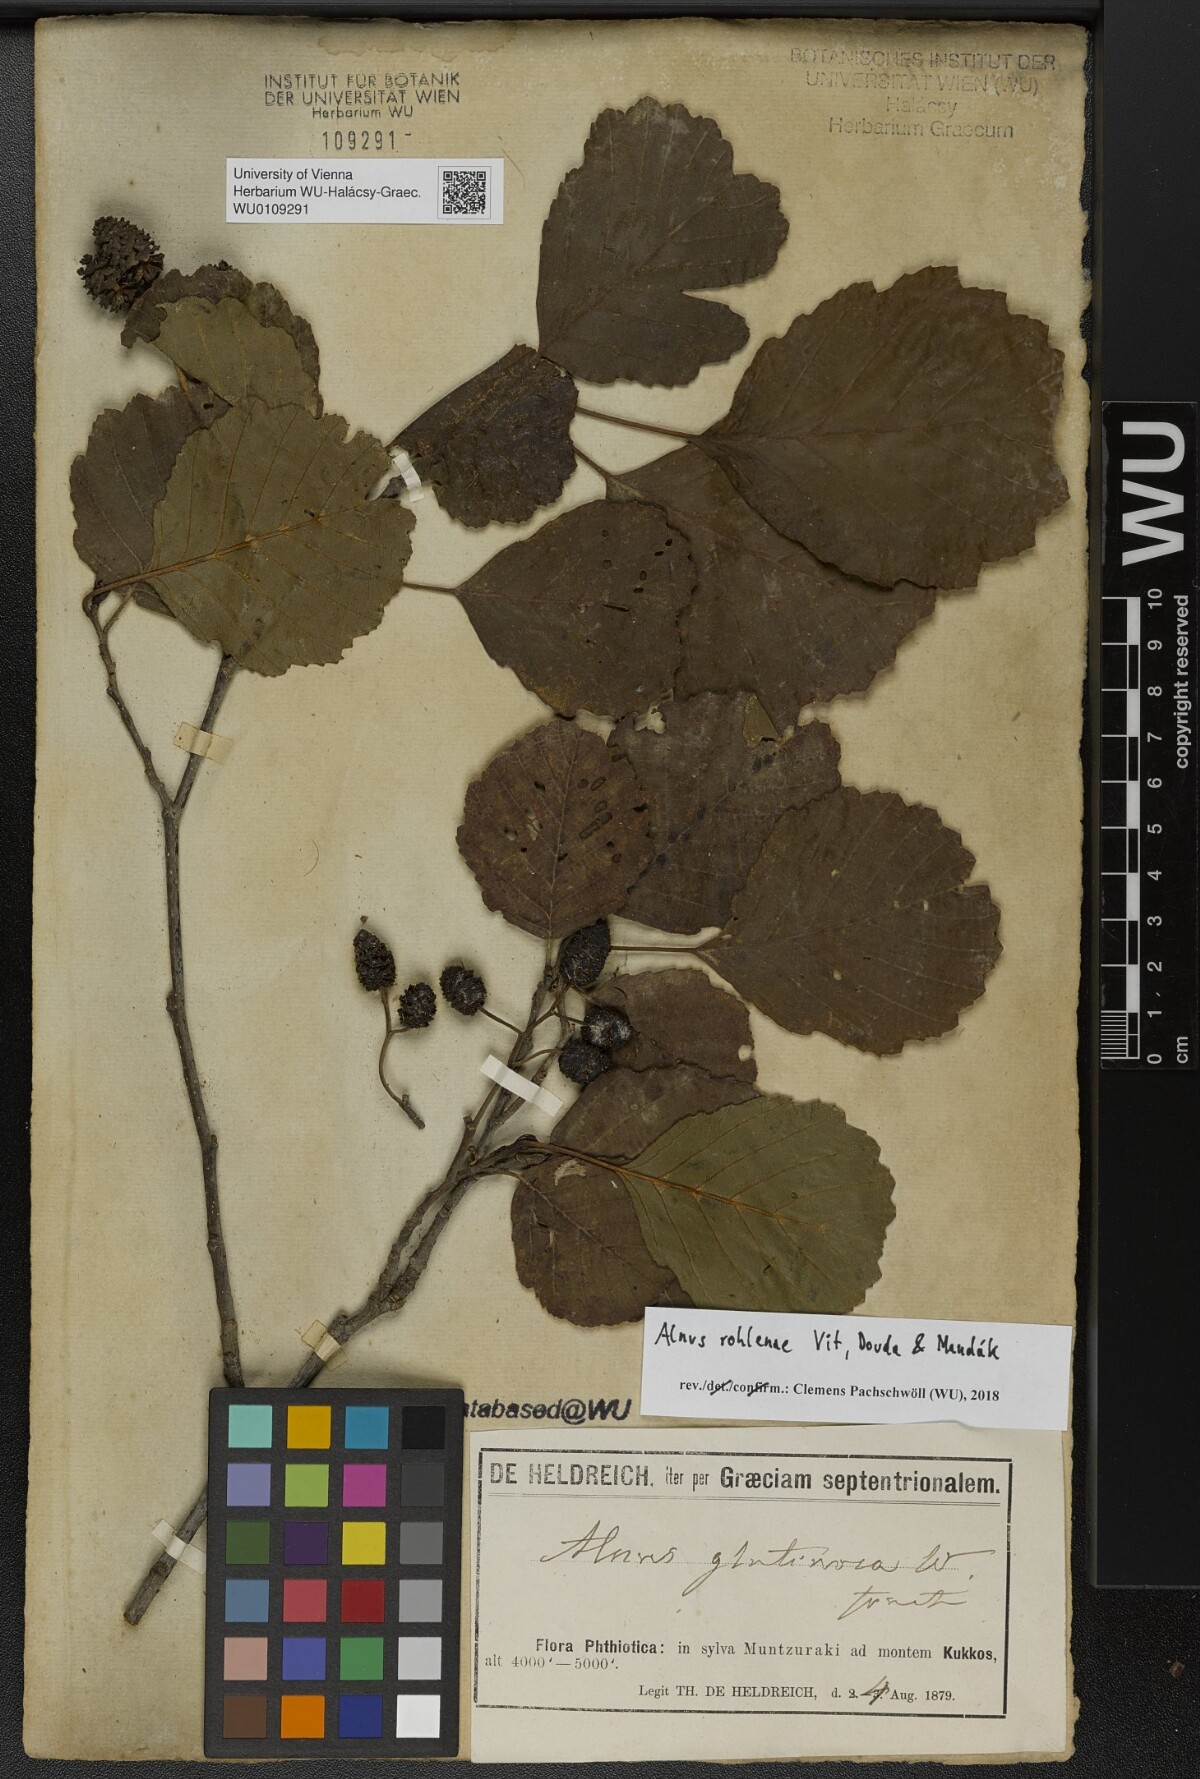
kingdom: Plantae
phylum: Tracheophyta
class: Magnoliopsida
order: Fagales
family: Betulaceae
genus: Alnus
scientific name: Alnus rohlenae
